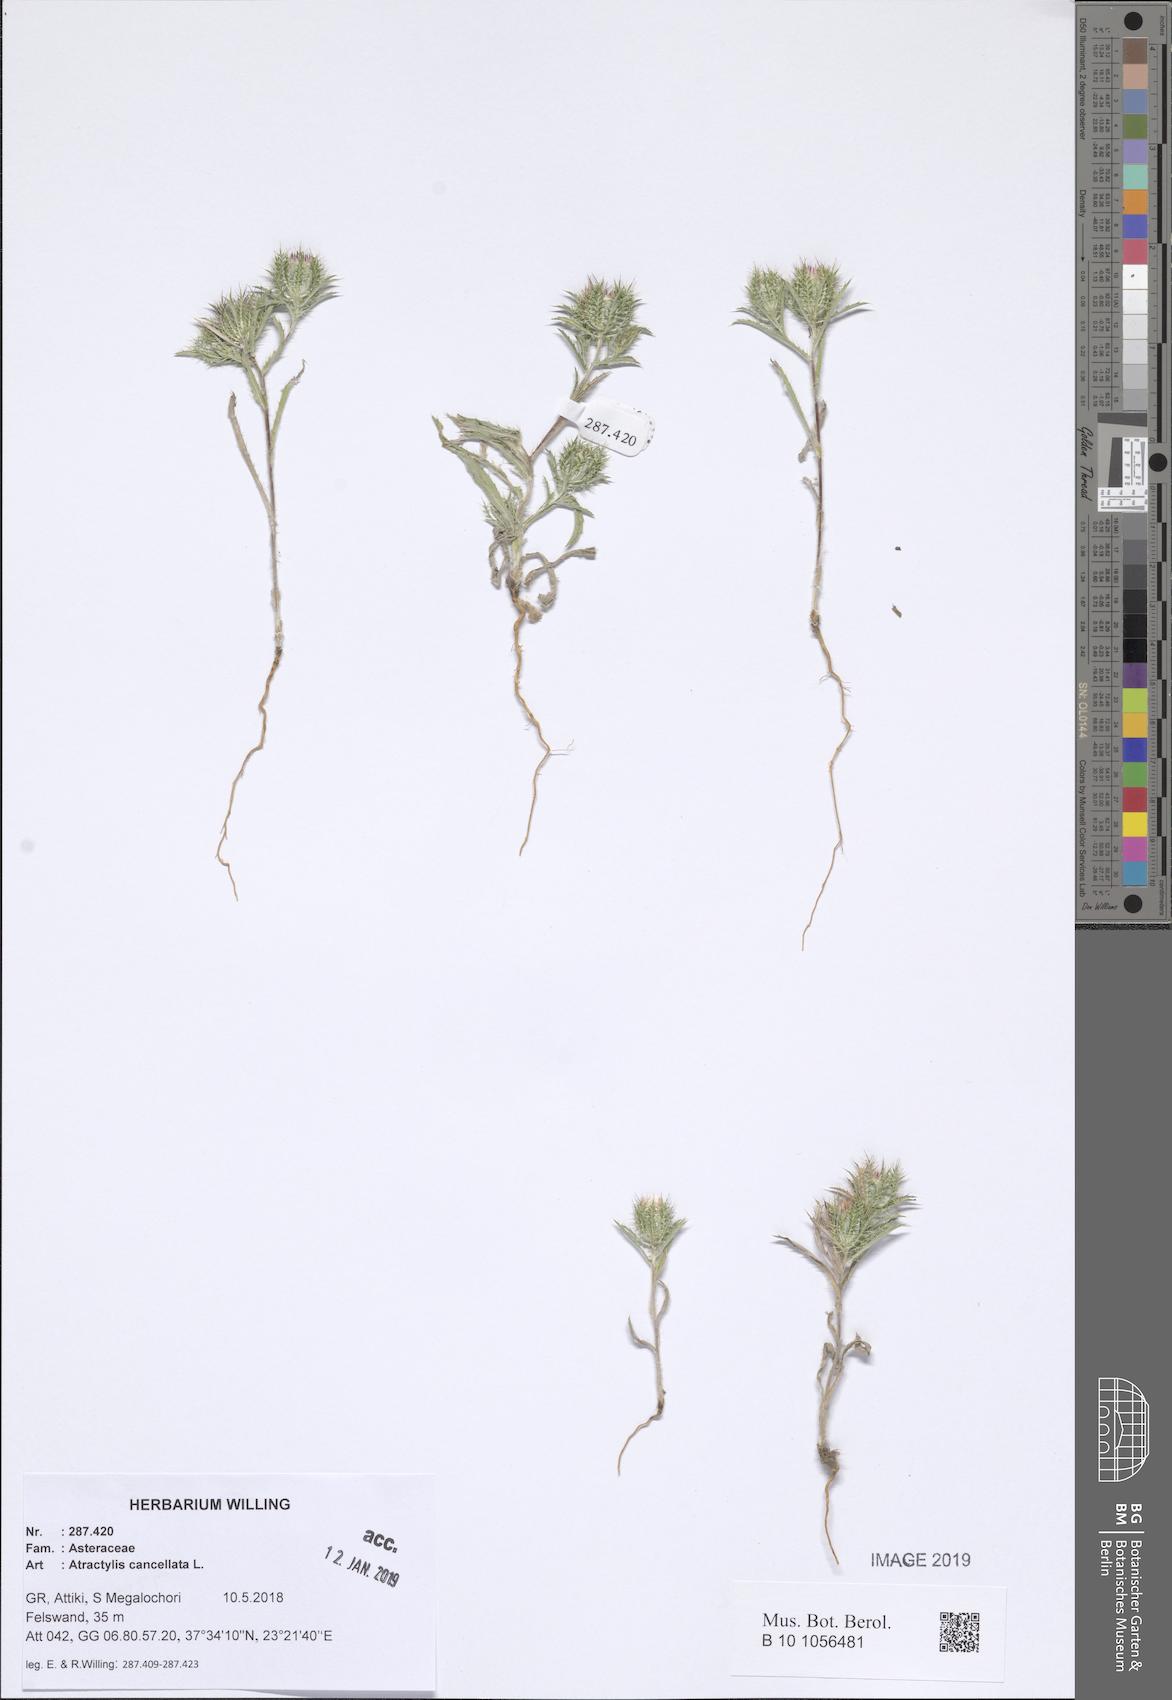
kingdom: Plantae
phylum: Tracheophyta
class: Magnoliopsida
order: Asterales
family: Asteraceae
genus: Atractylis
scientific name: Atractylis cancellata
